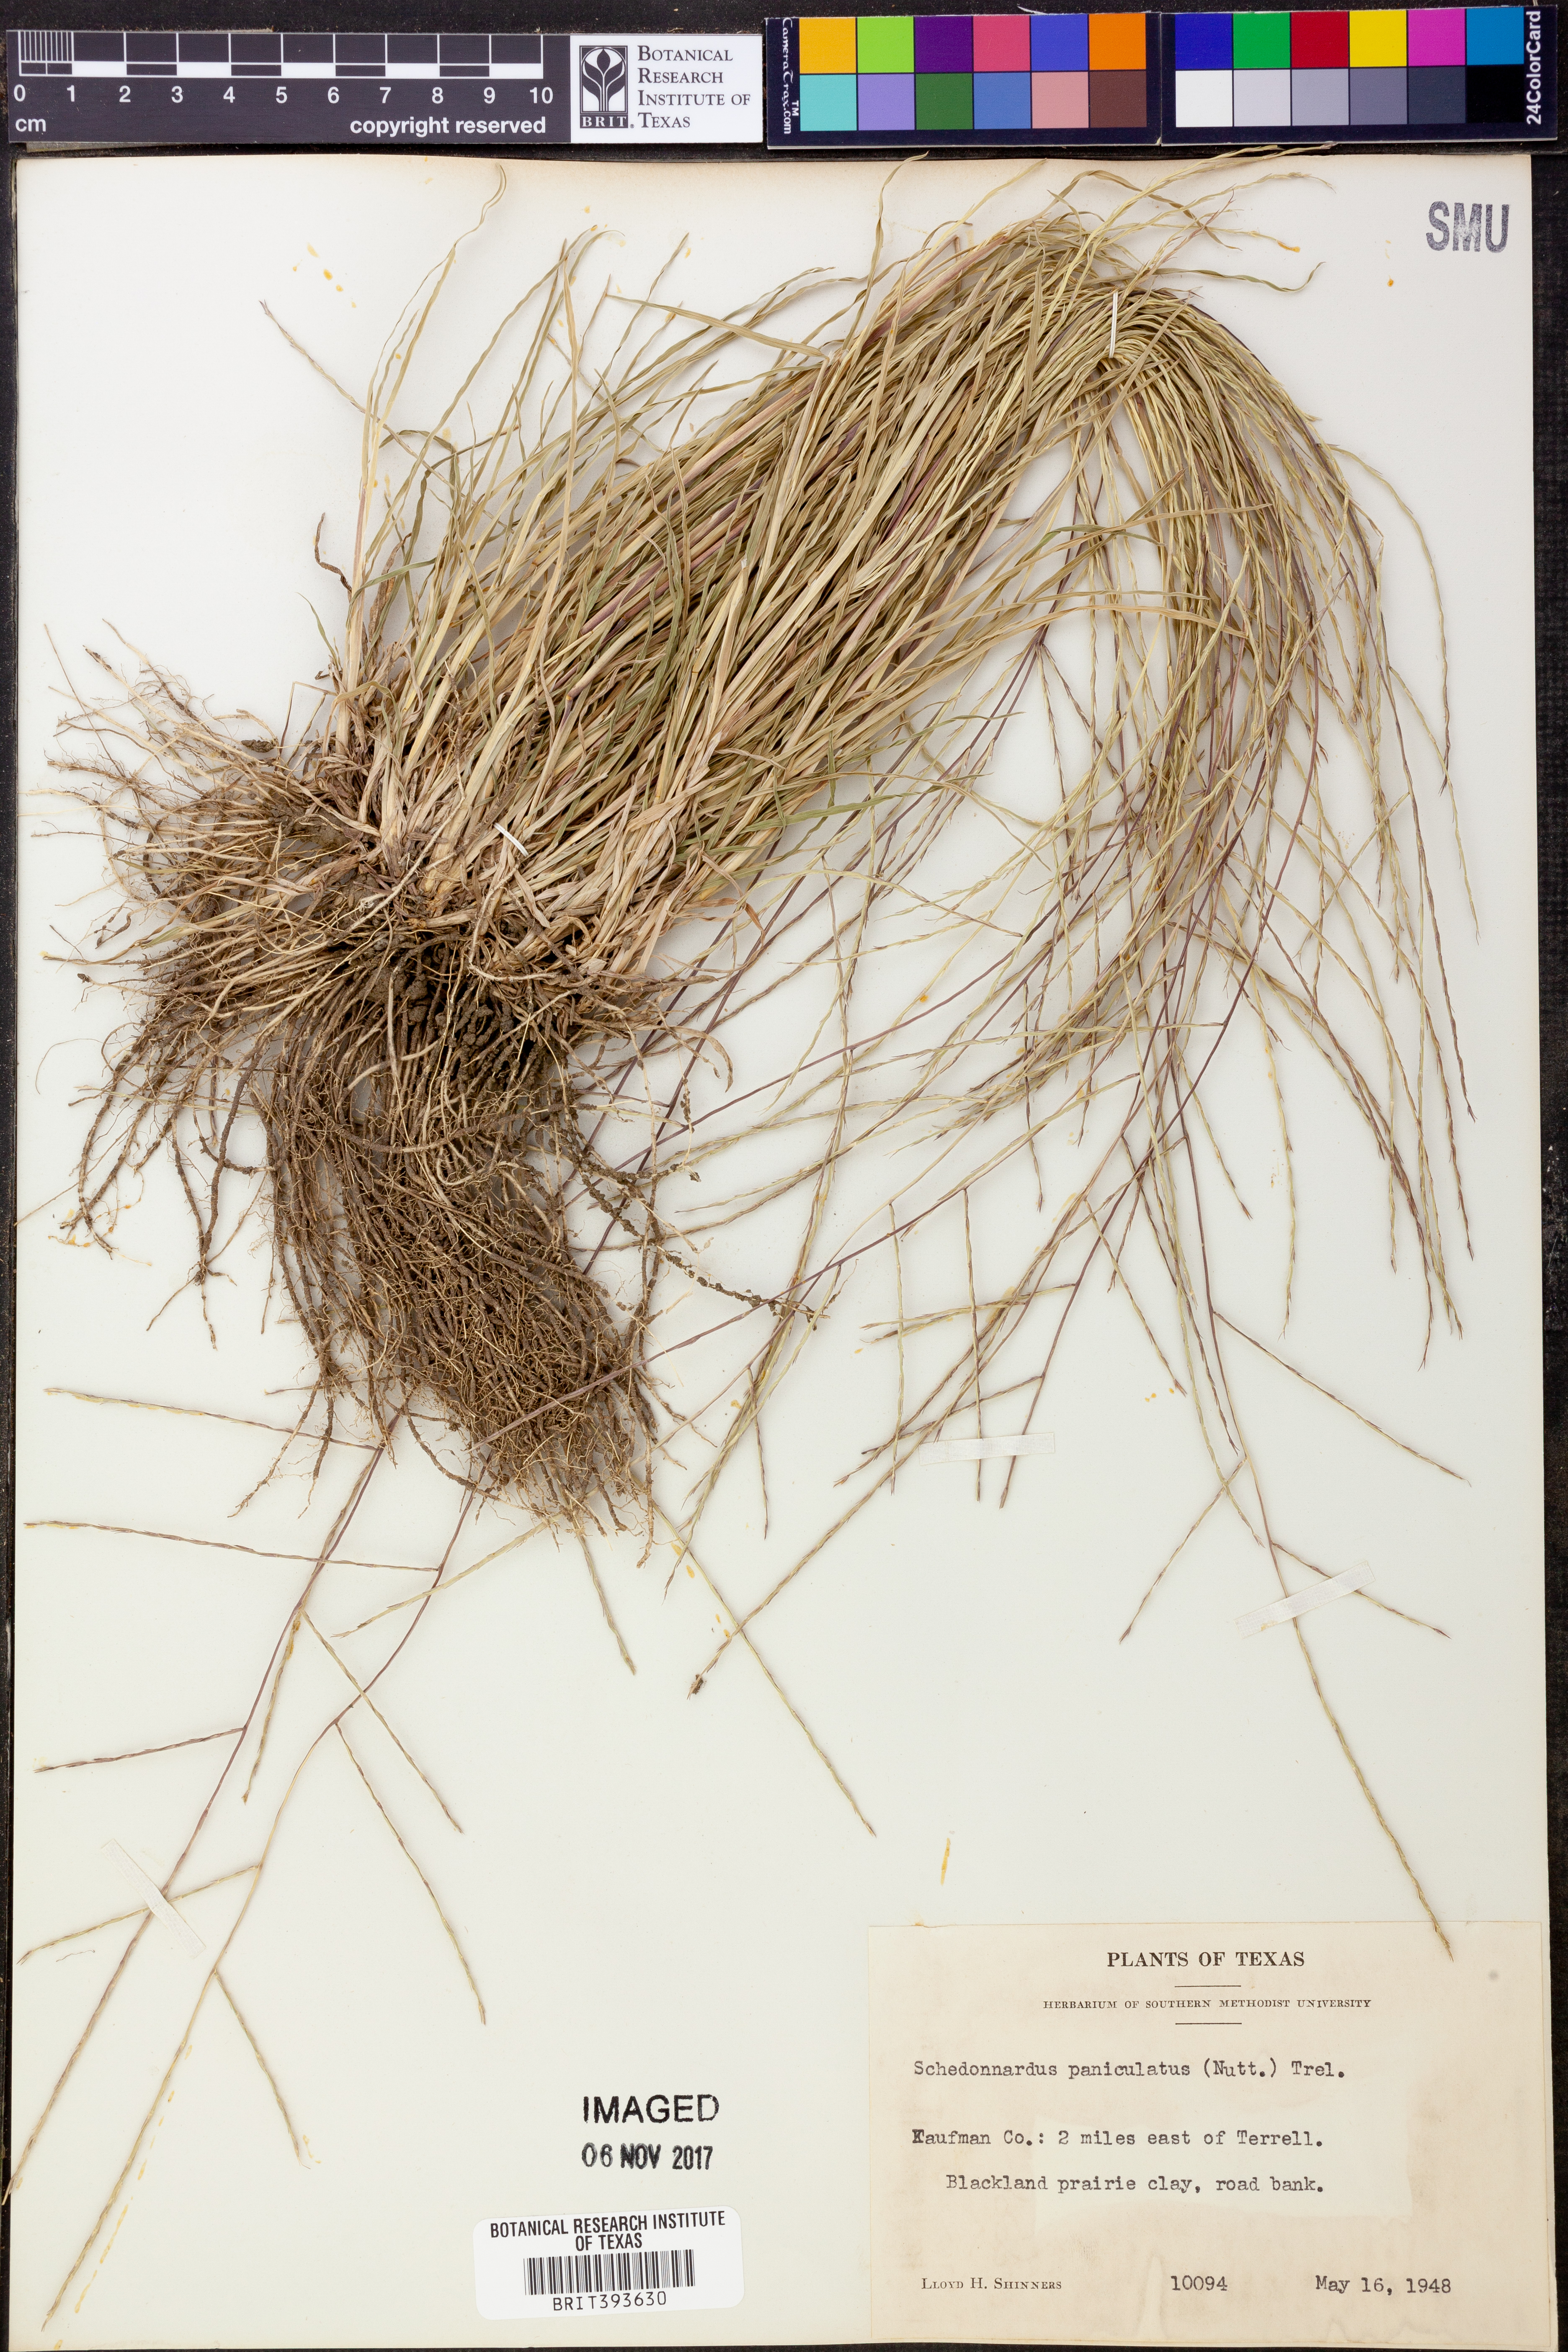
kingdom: Plantae
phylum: Tracheophyta
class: Liliopsida
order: Poales
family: Poaceae
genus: Muhlenbergia
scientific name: Muhlenbergia paniculata
